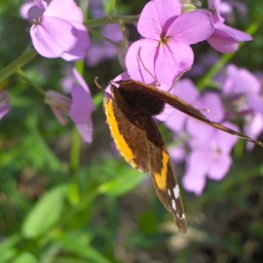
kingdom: Animalia
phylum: Arthropoda
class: Insecta
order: Lepidoptera
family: Nymphalidae
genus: Vanessa
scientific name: Vanessa atalanta
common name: Red Admiral
